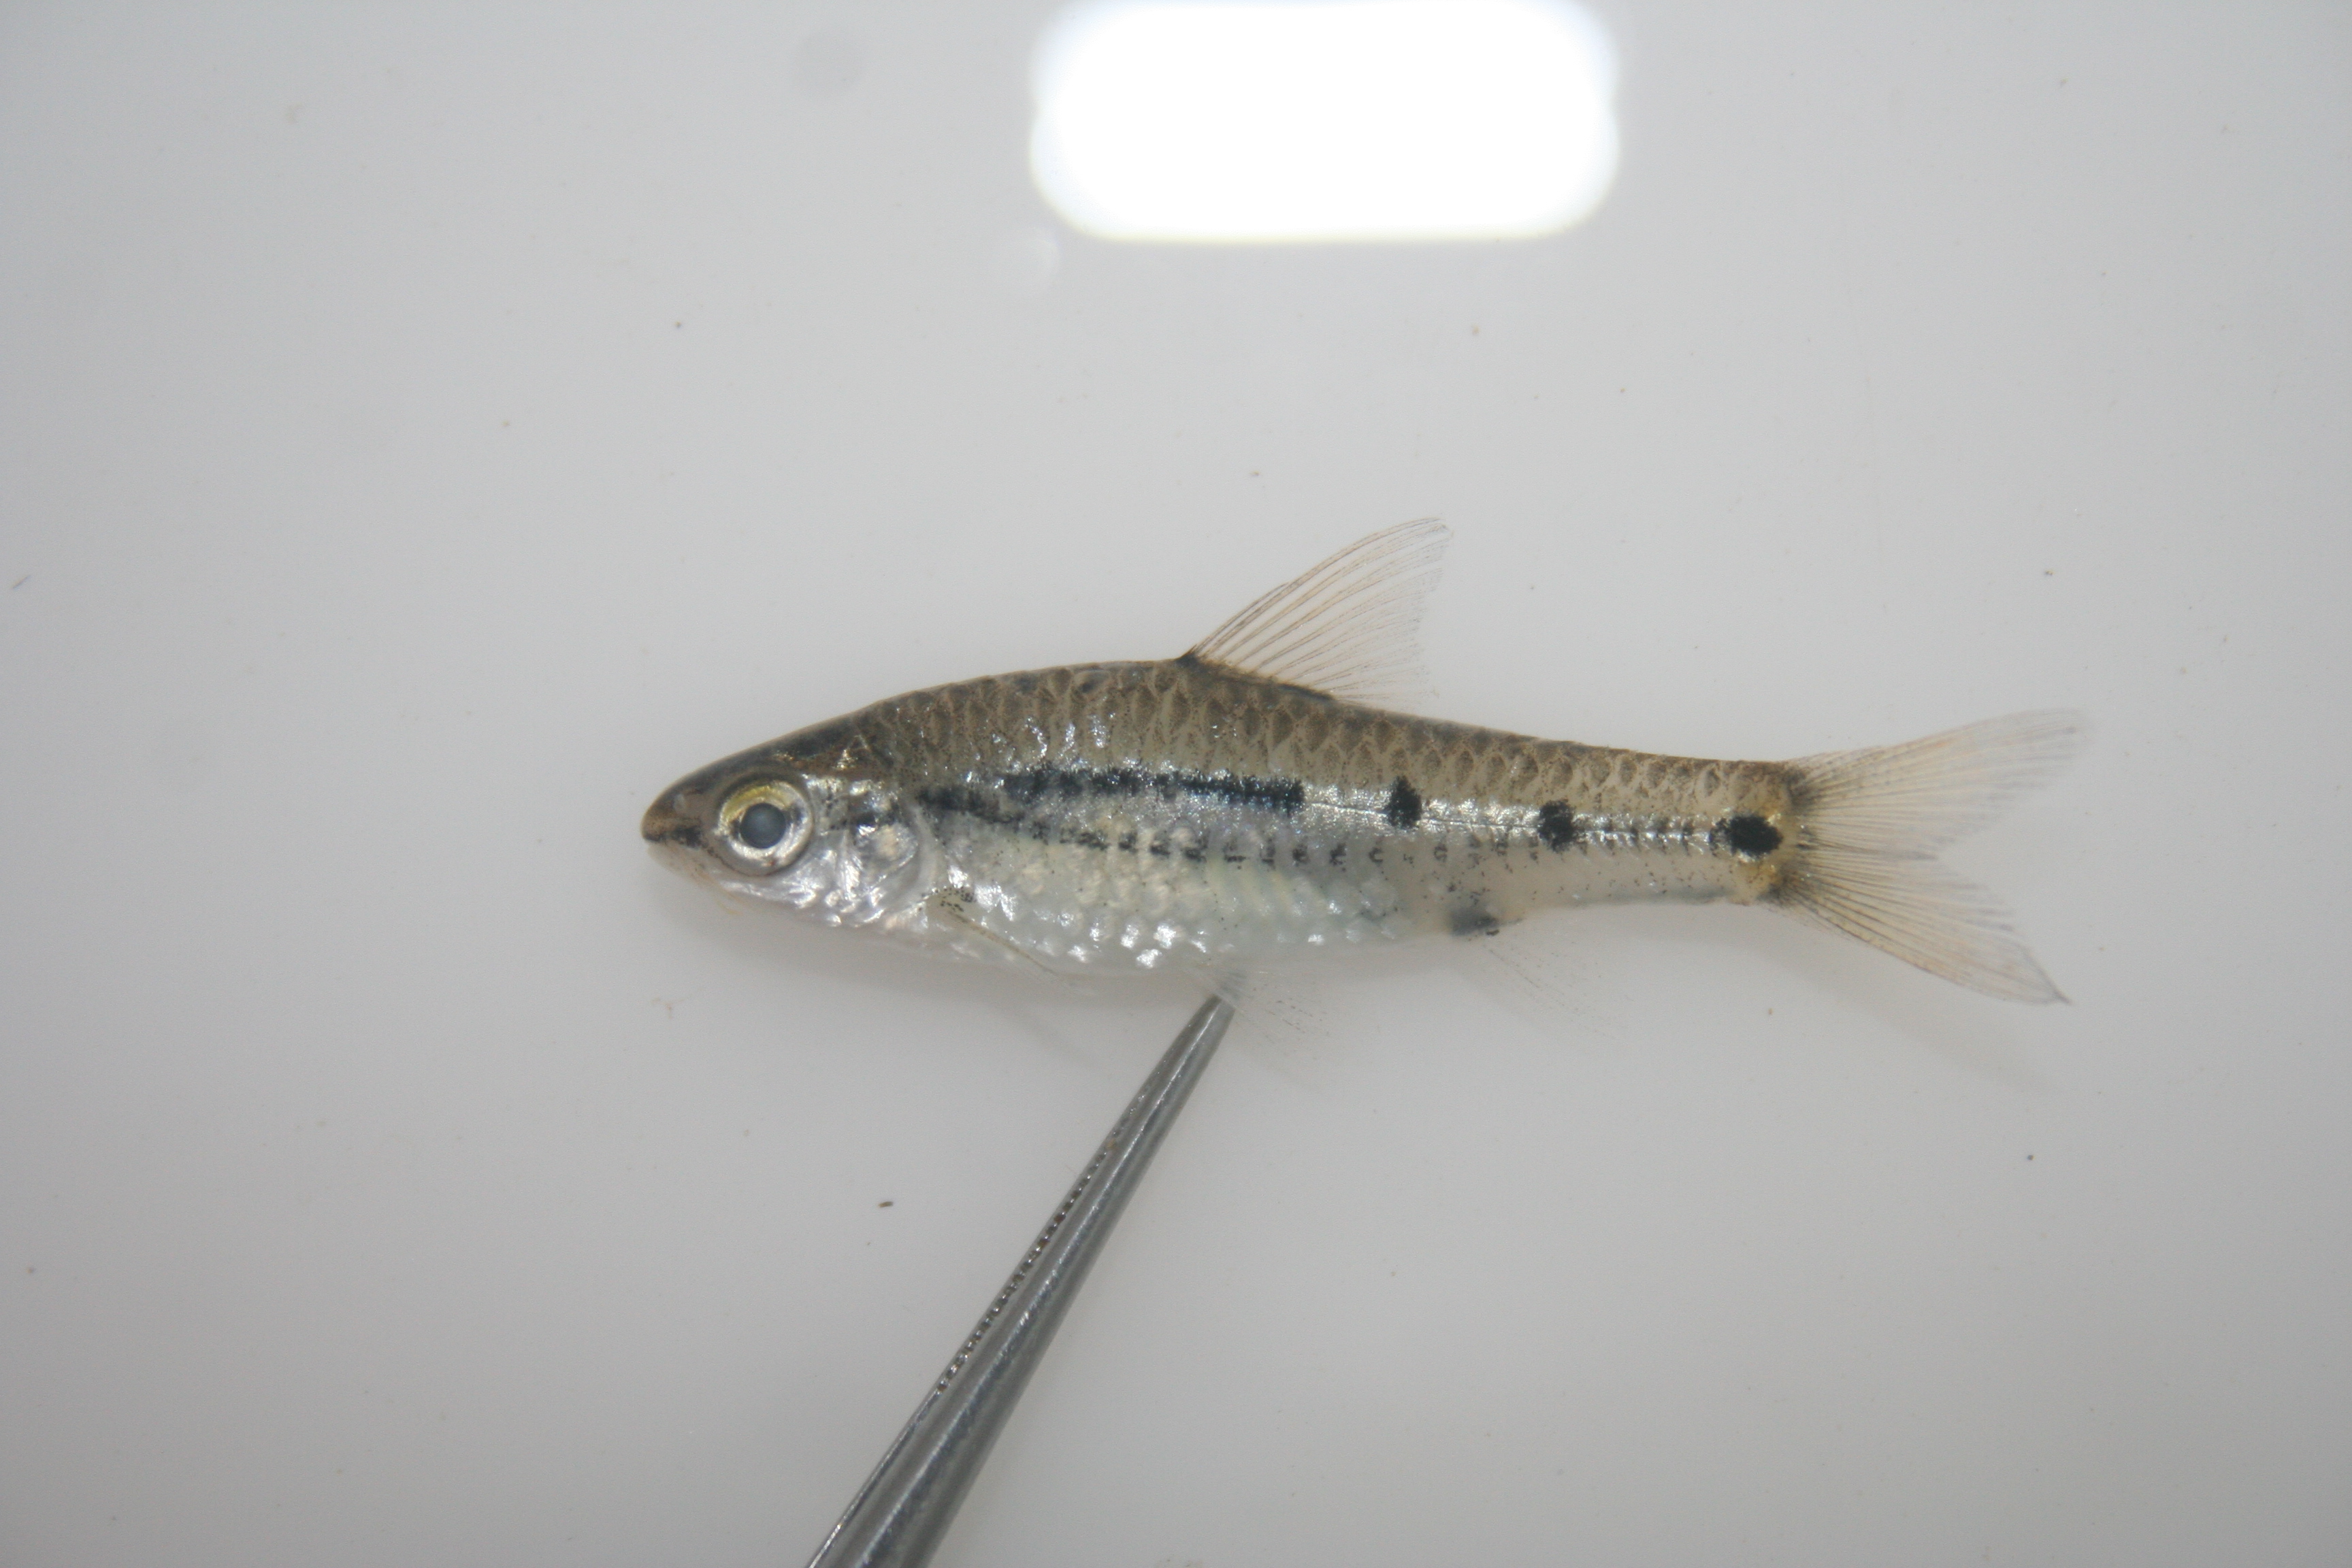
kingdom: Animalia
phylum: Chordata
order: Cypriniformes
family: Cyprinidae
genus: Enteromius
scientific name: Enteromius greenwoodi
